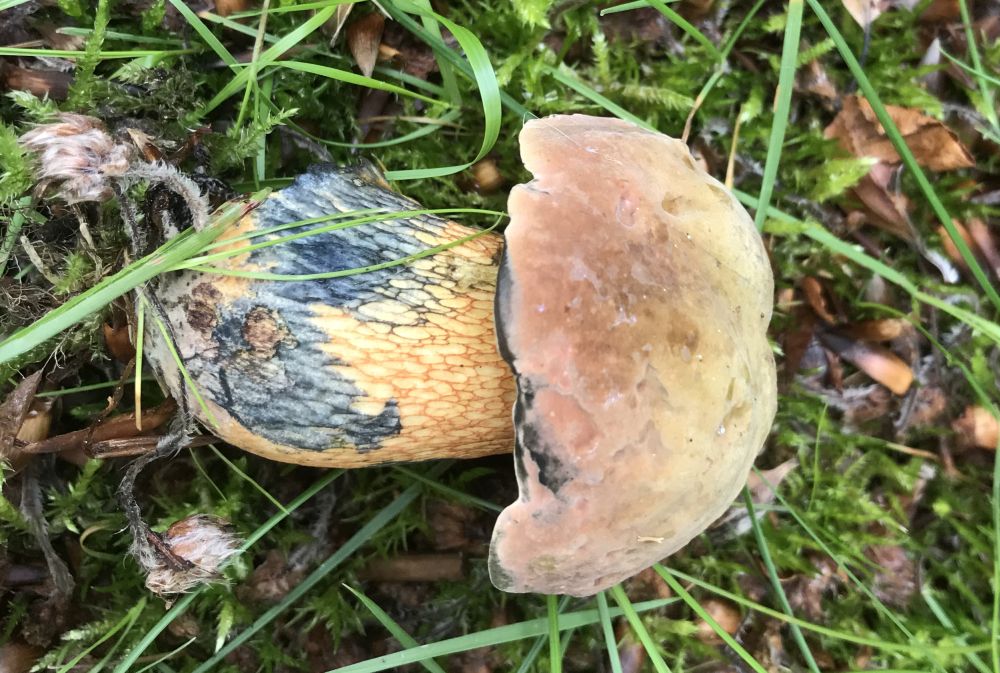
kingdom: Fungi
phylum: Basidiomycota
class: Agaricomycetes
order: Boletales
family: Boletaceae
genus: Suillellus
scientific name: Suillellus luridus
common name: netstokket indigorørhat
